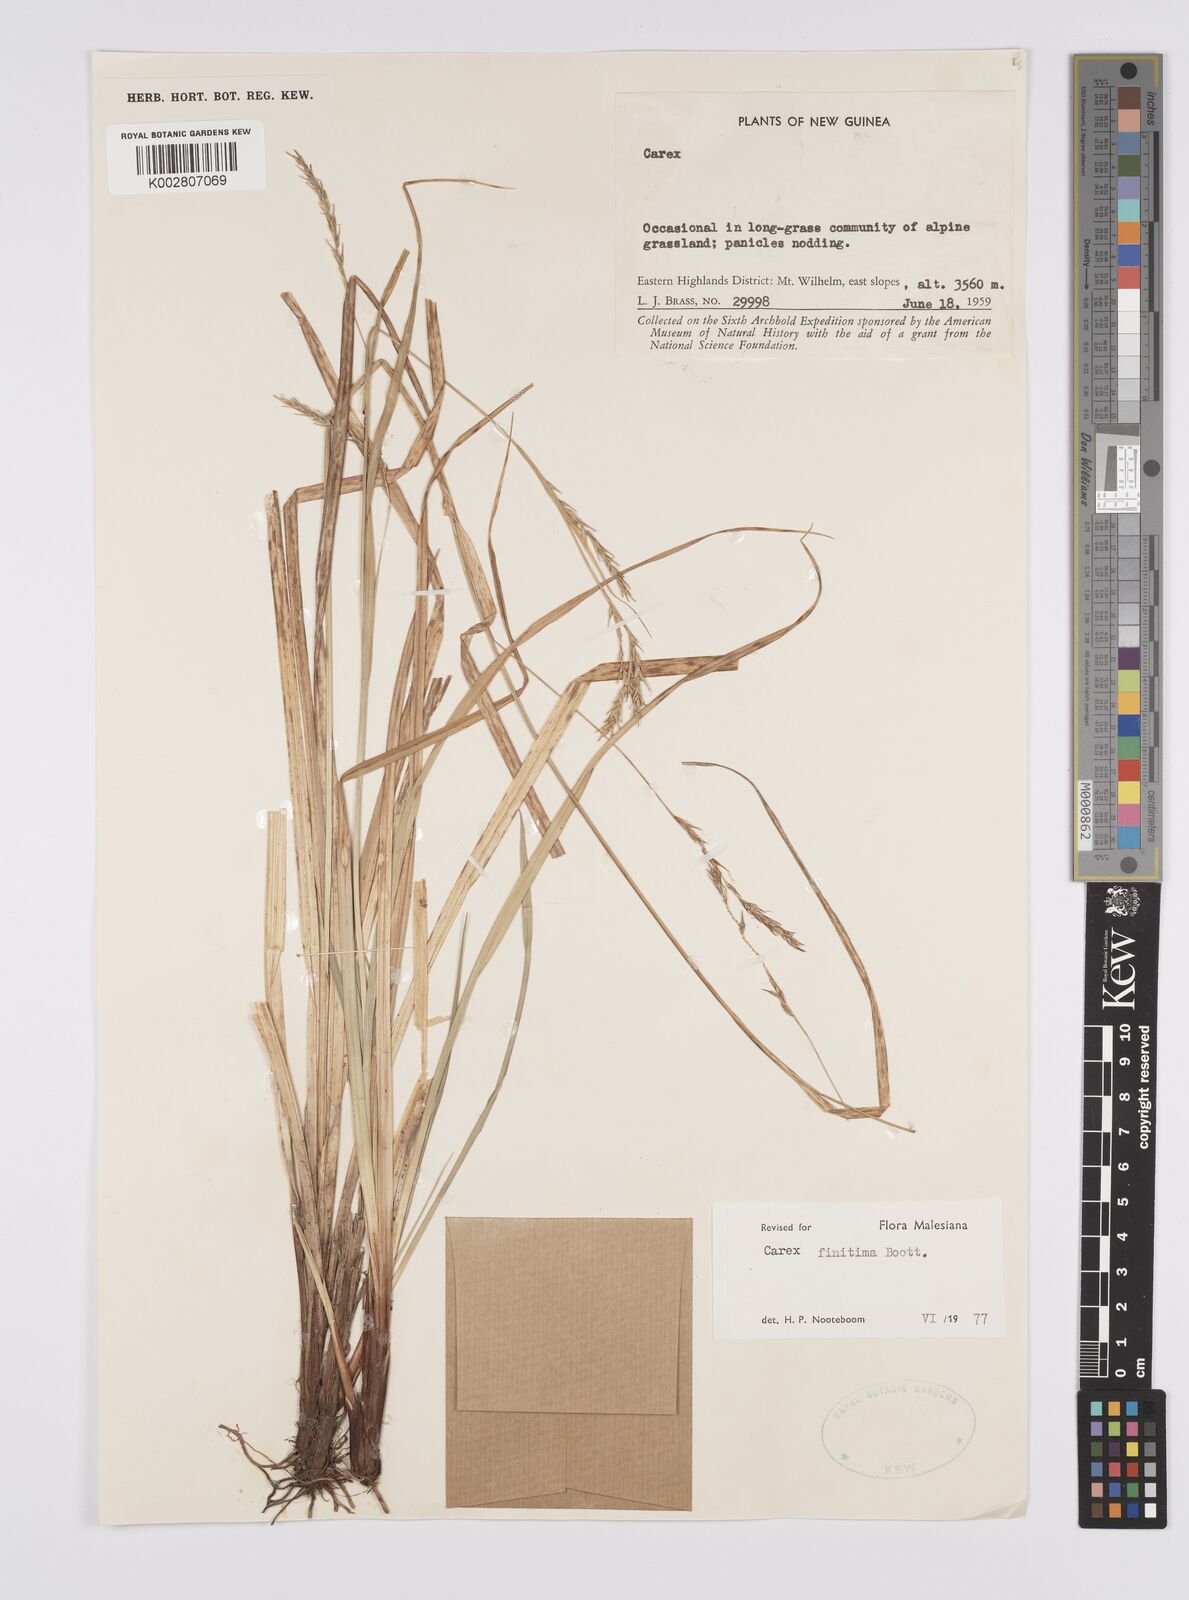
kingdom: Plantae
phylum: Tracheophyta
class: Liliopsida
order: Poales
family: Cyperaceae
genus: Carex
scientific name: Carex finitima
